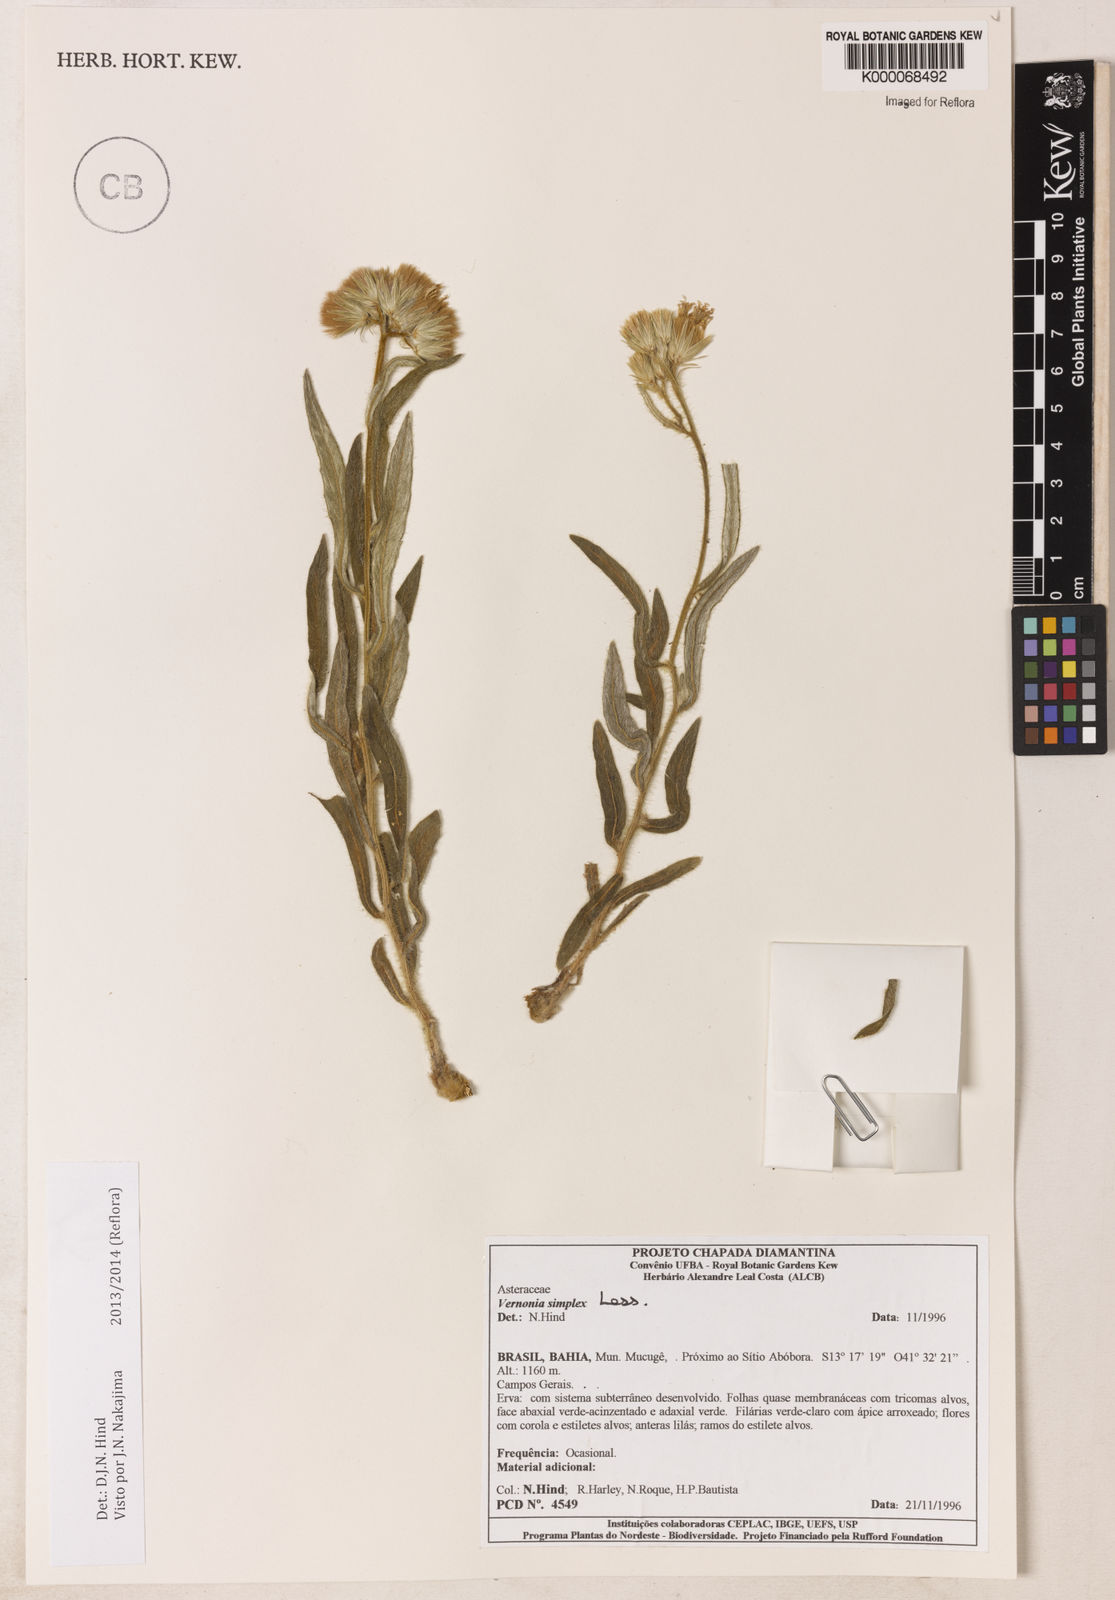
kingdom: Plantae
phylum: Tracheophyta
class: Magnoliopsida
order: Asterales
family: Asteraceae
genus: Chrysolaena
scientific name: Chrysolaena simplex
